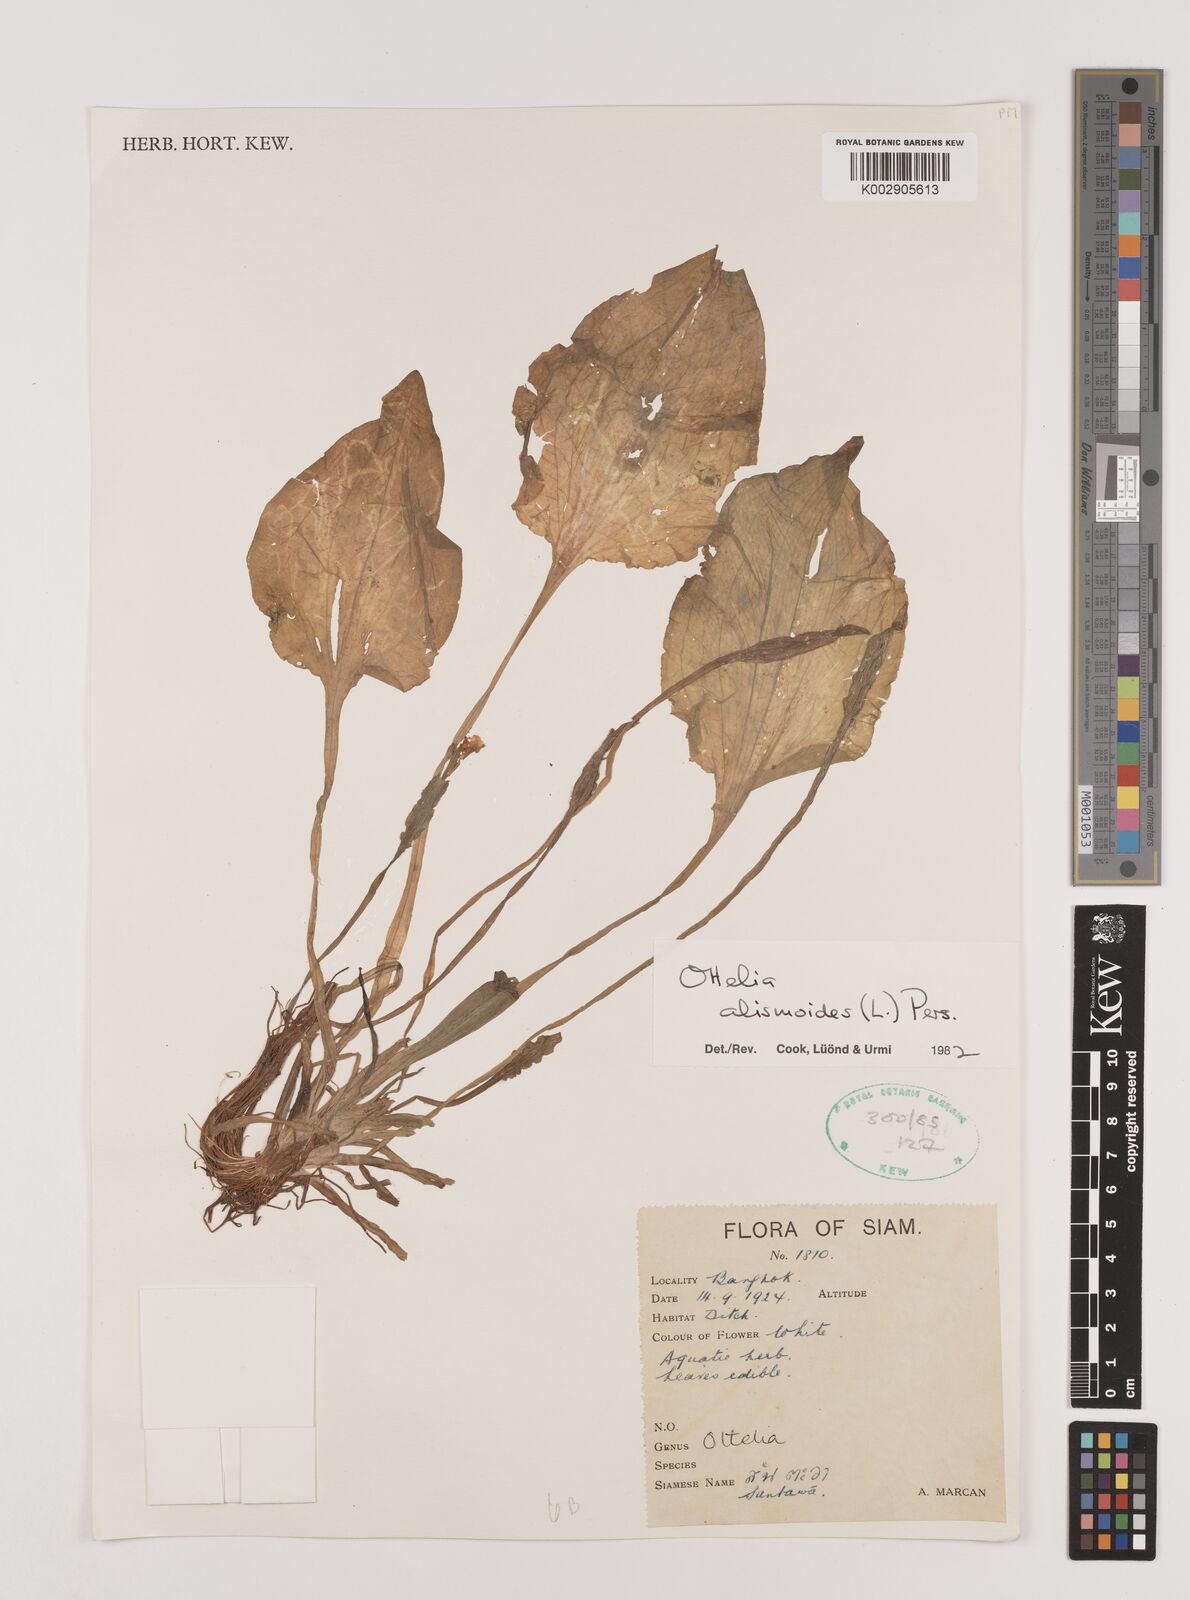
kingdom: Plantae
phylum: Tracheophyta
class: Liliopsida
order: Alismatales
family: Hydrocharitaceae
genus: Ottelia
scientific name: Ottelia alismoides
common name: Duck-lettuce
